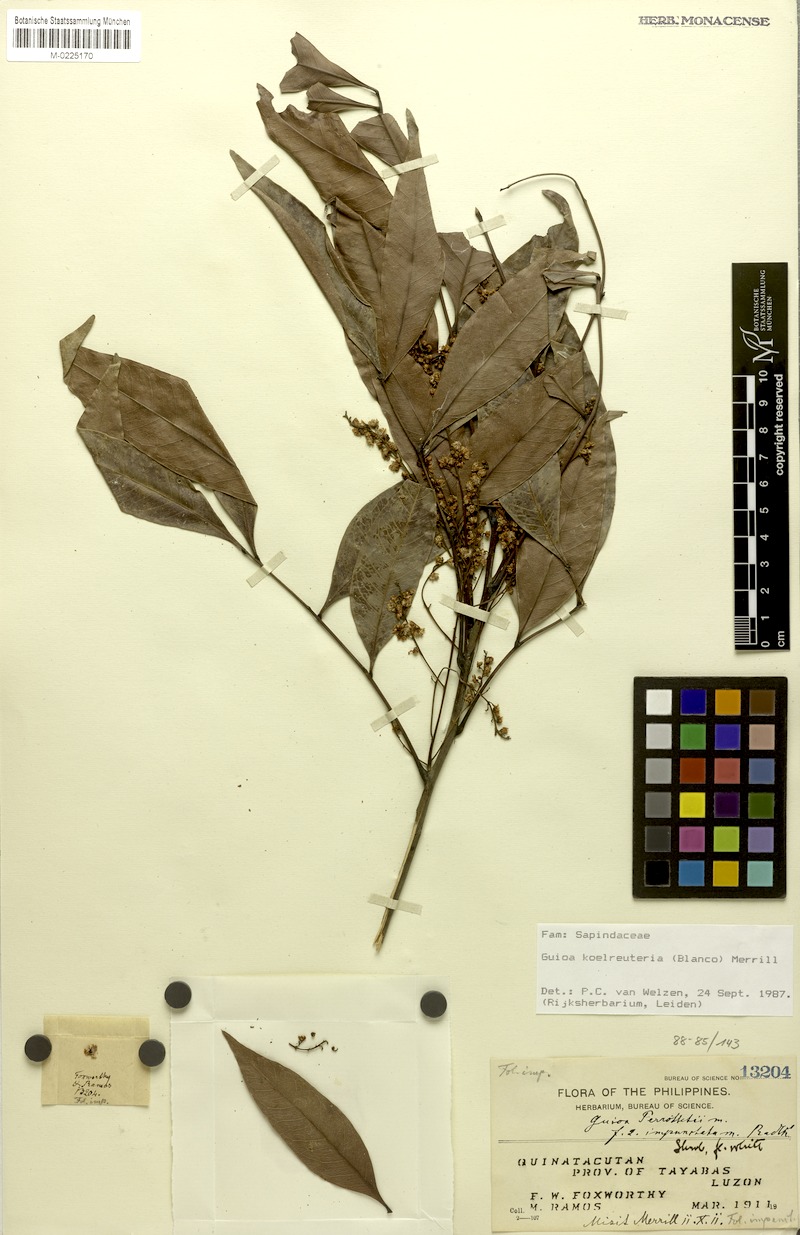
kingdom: Plantae
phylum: Tracheophyta
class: Magnoliopsida
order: Sapindales
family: Sapindaceae
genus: Guioa
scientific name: Guioa koelreuteria
